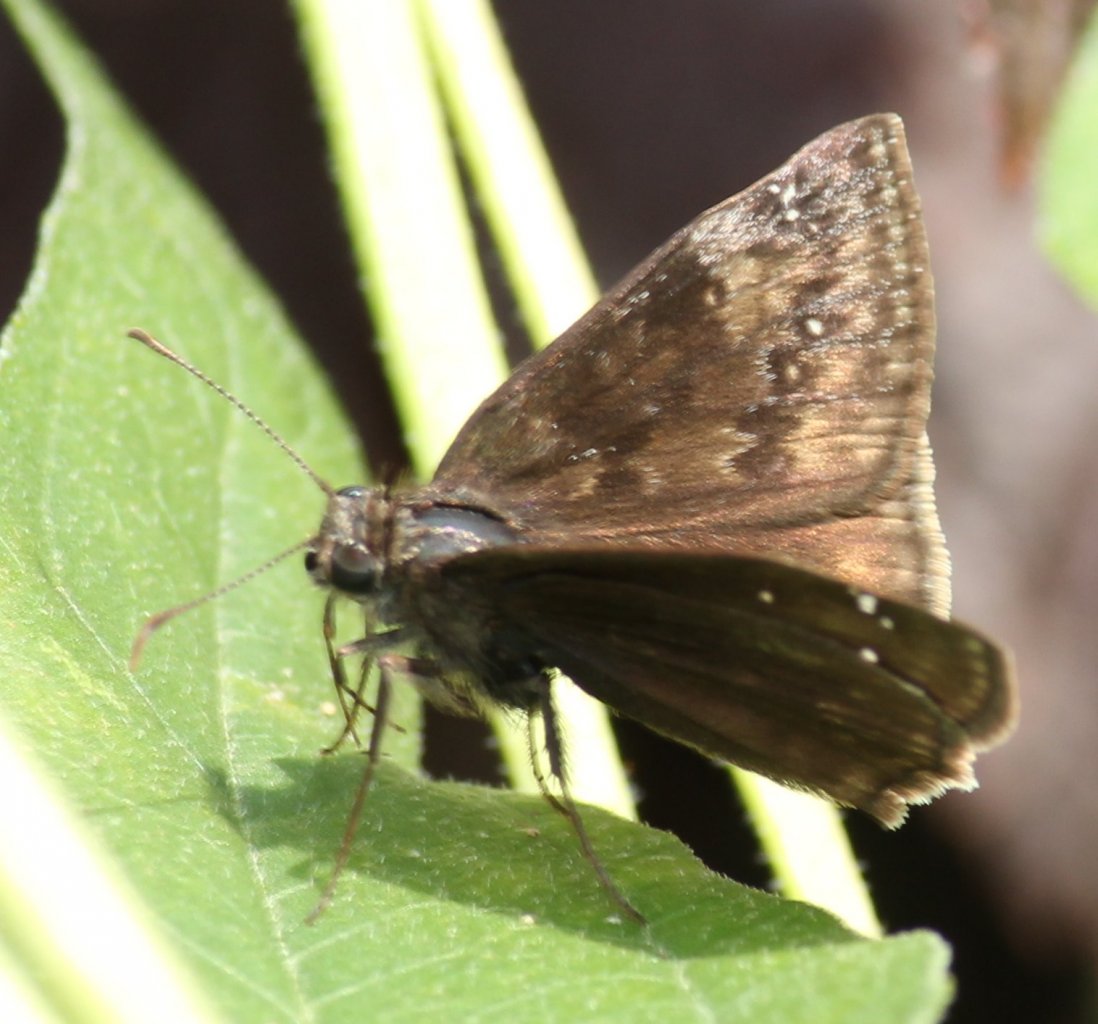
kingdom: Animalia
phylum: Arthropoda
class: Insecta
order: Lepidoptera
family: Hesperiidae
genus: Gesta
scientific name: Gesta
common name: Wild Indigo Duskywing
